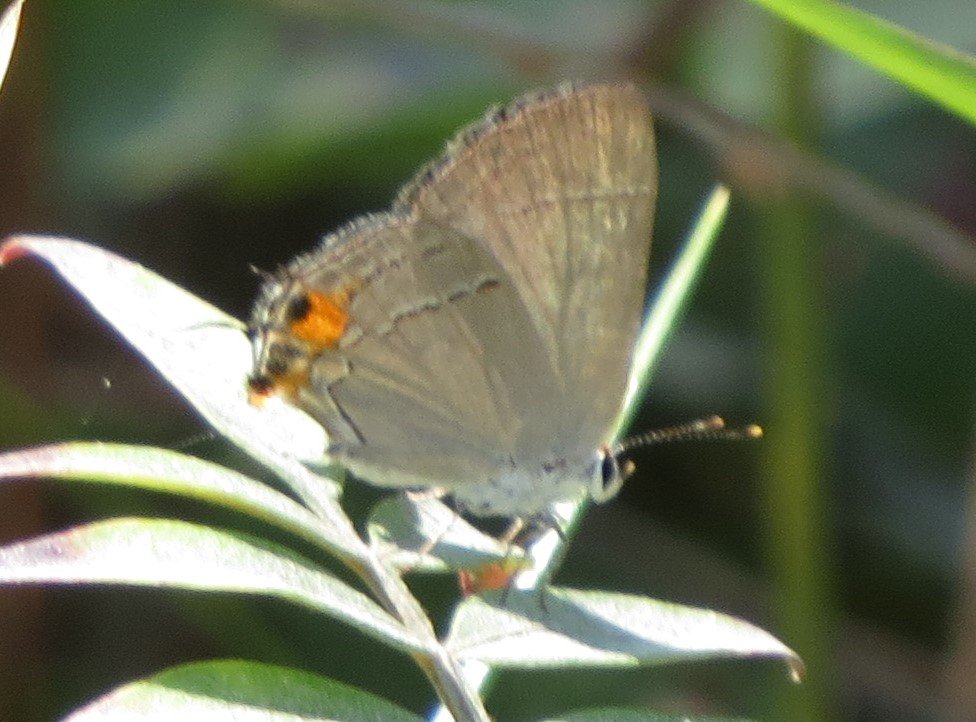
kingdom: Animalia
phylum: Arthropoda
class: Insecta
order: Lepidoptera
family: Lycaenidae
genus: Strymon
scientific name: Strymon melinus
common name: Gray Hairstreak
